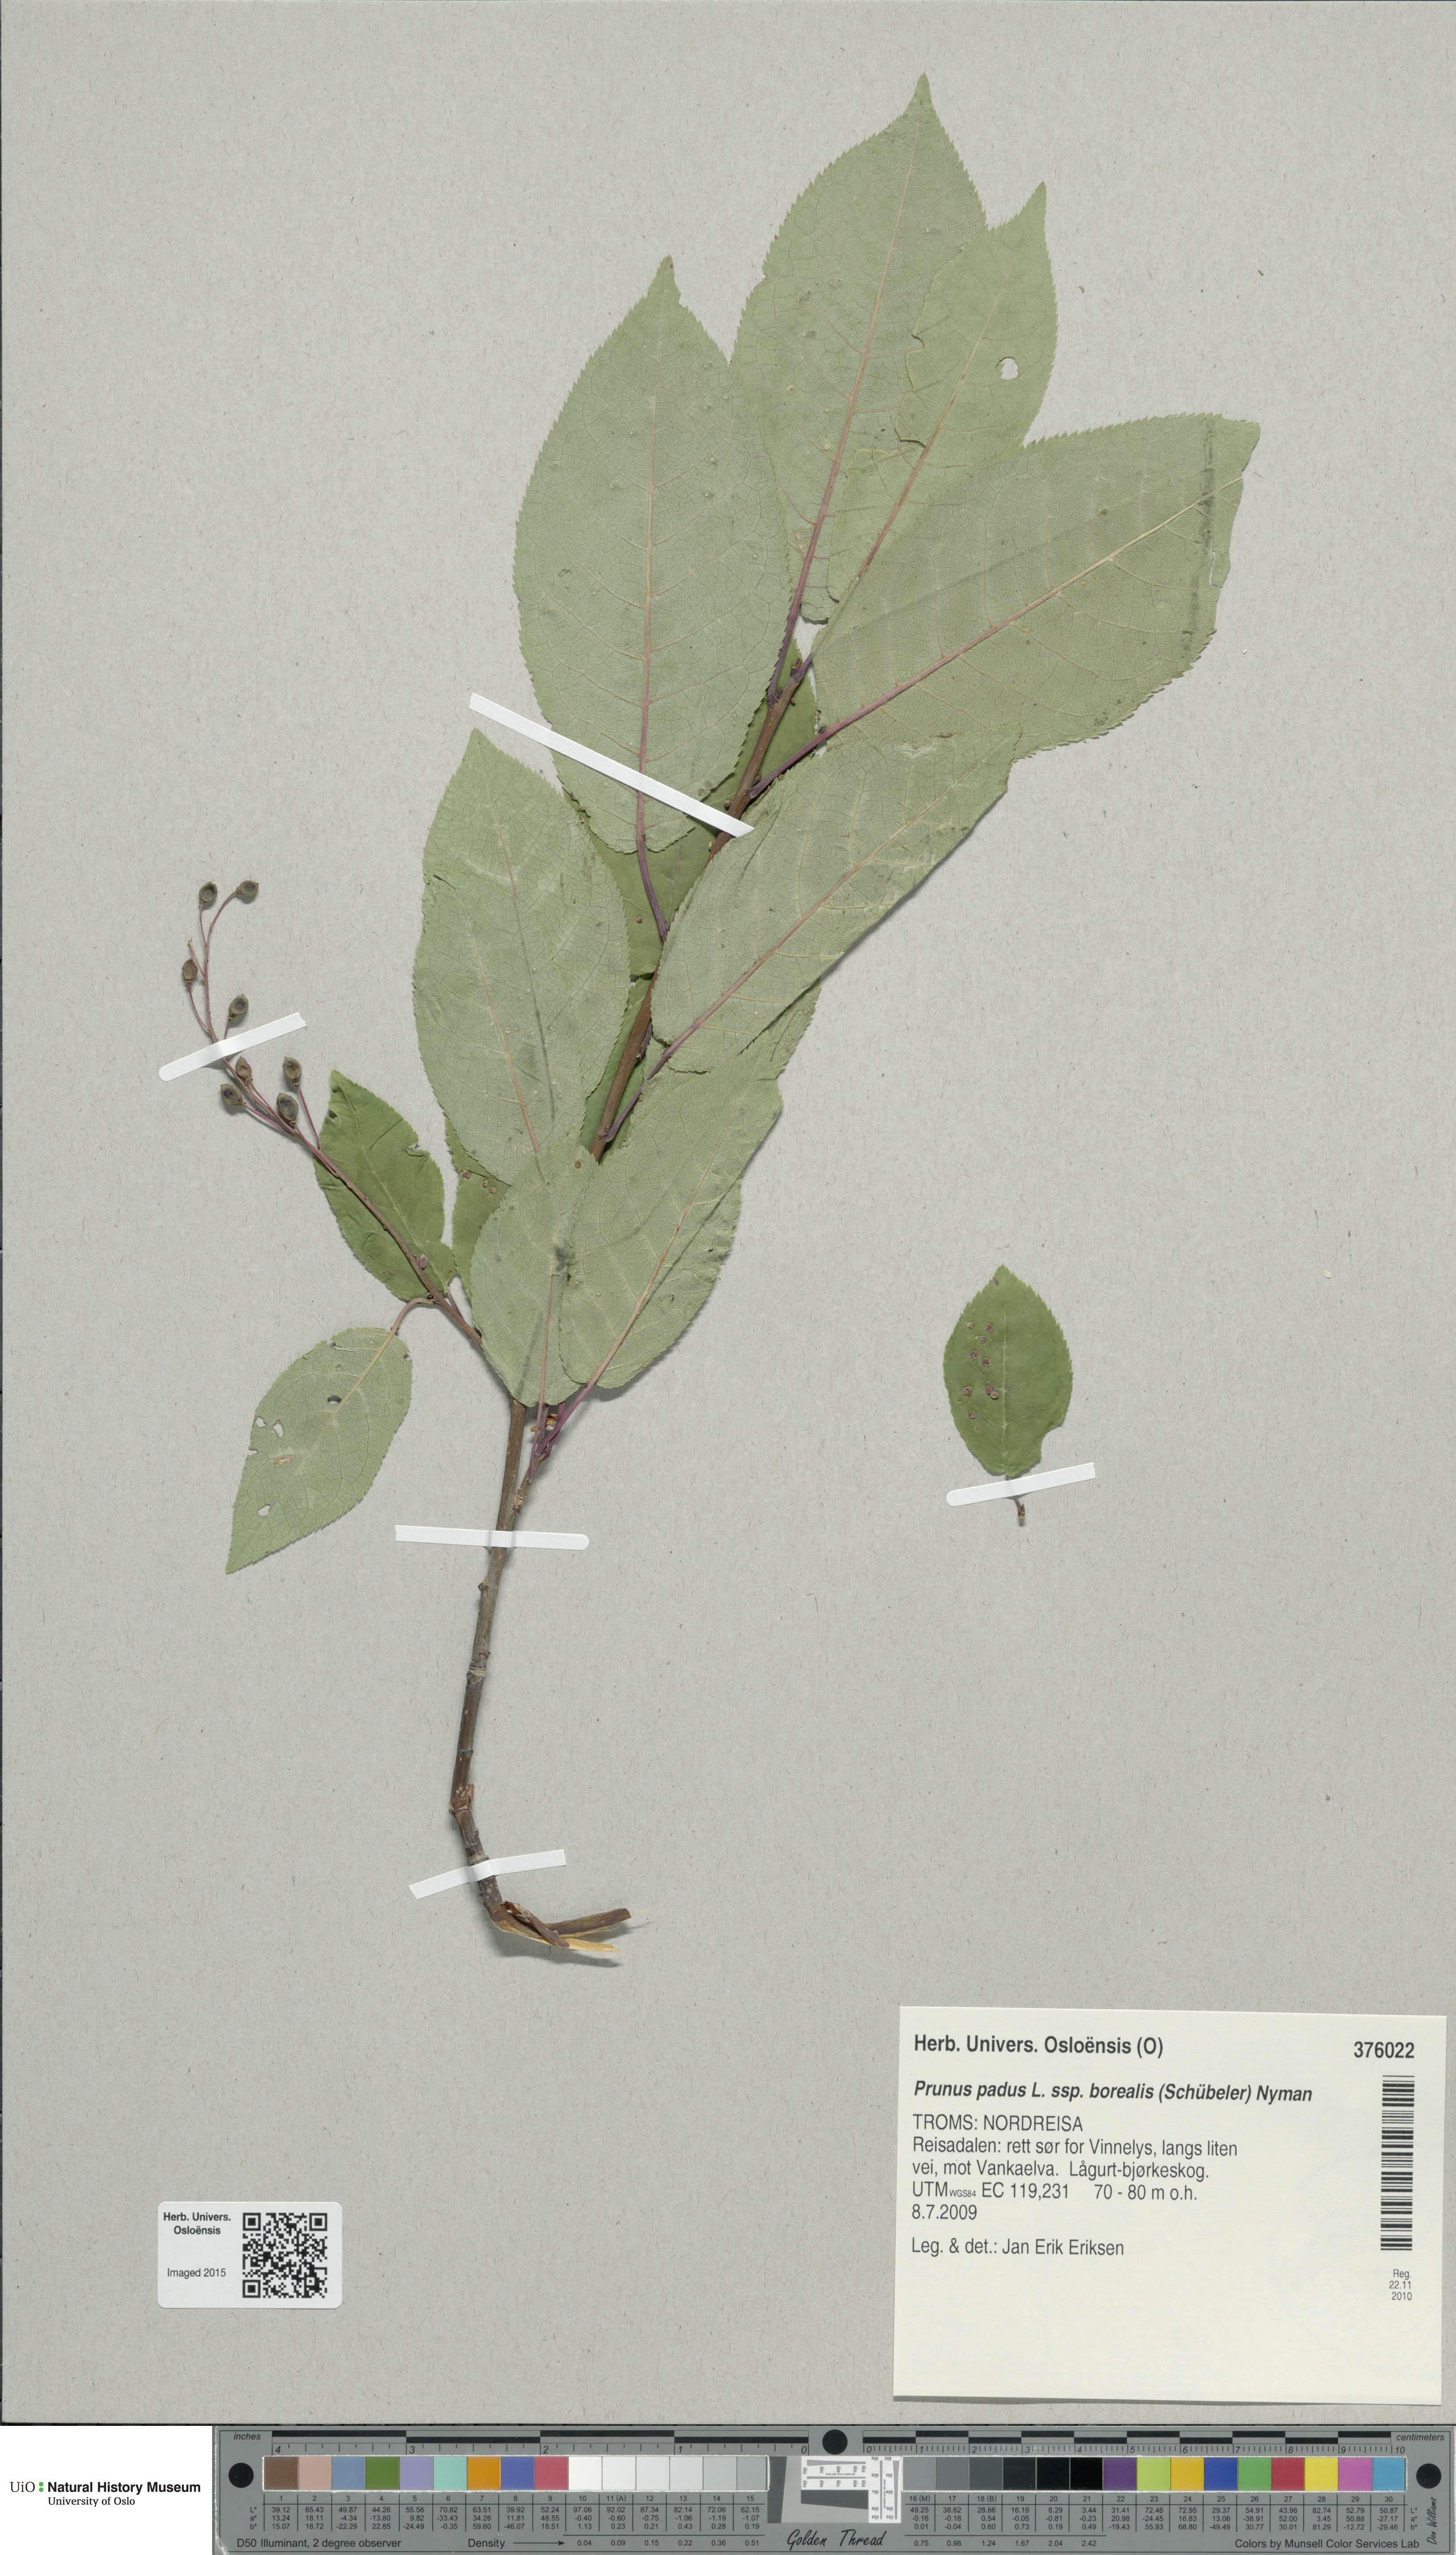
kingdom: Plantae
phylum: Tracheophyta
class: Magnoliopsida
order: Rosales
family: Rosaceae
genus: Prunus
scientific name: Prunus padus
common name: Bird cherry
